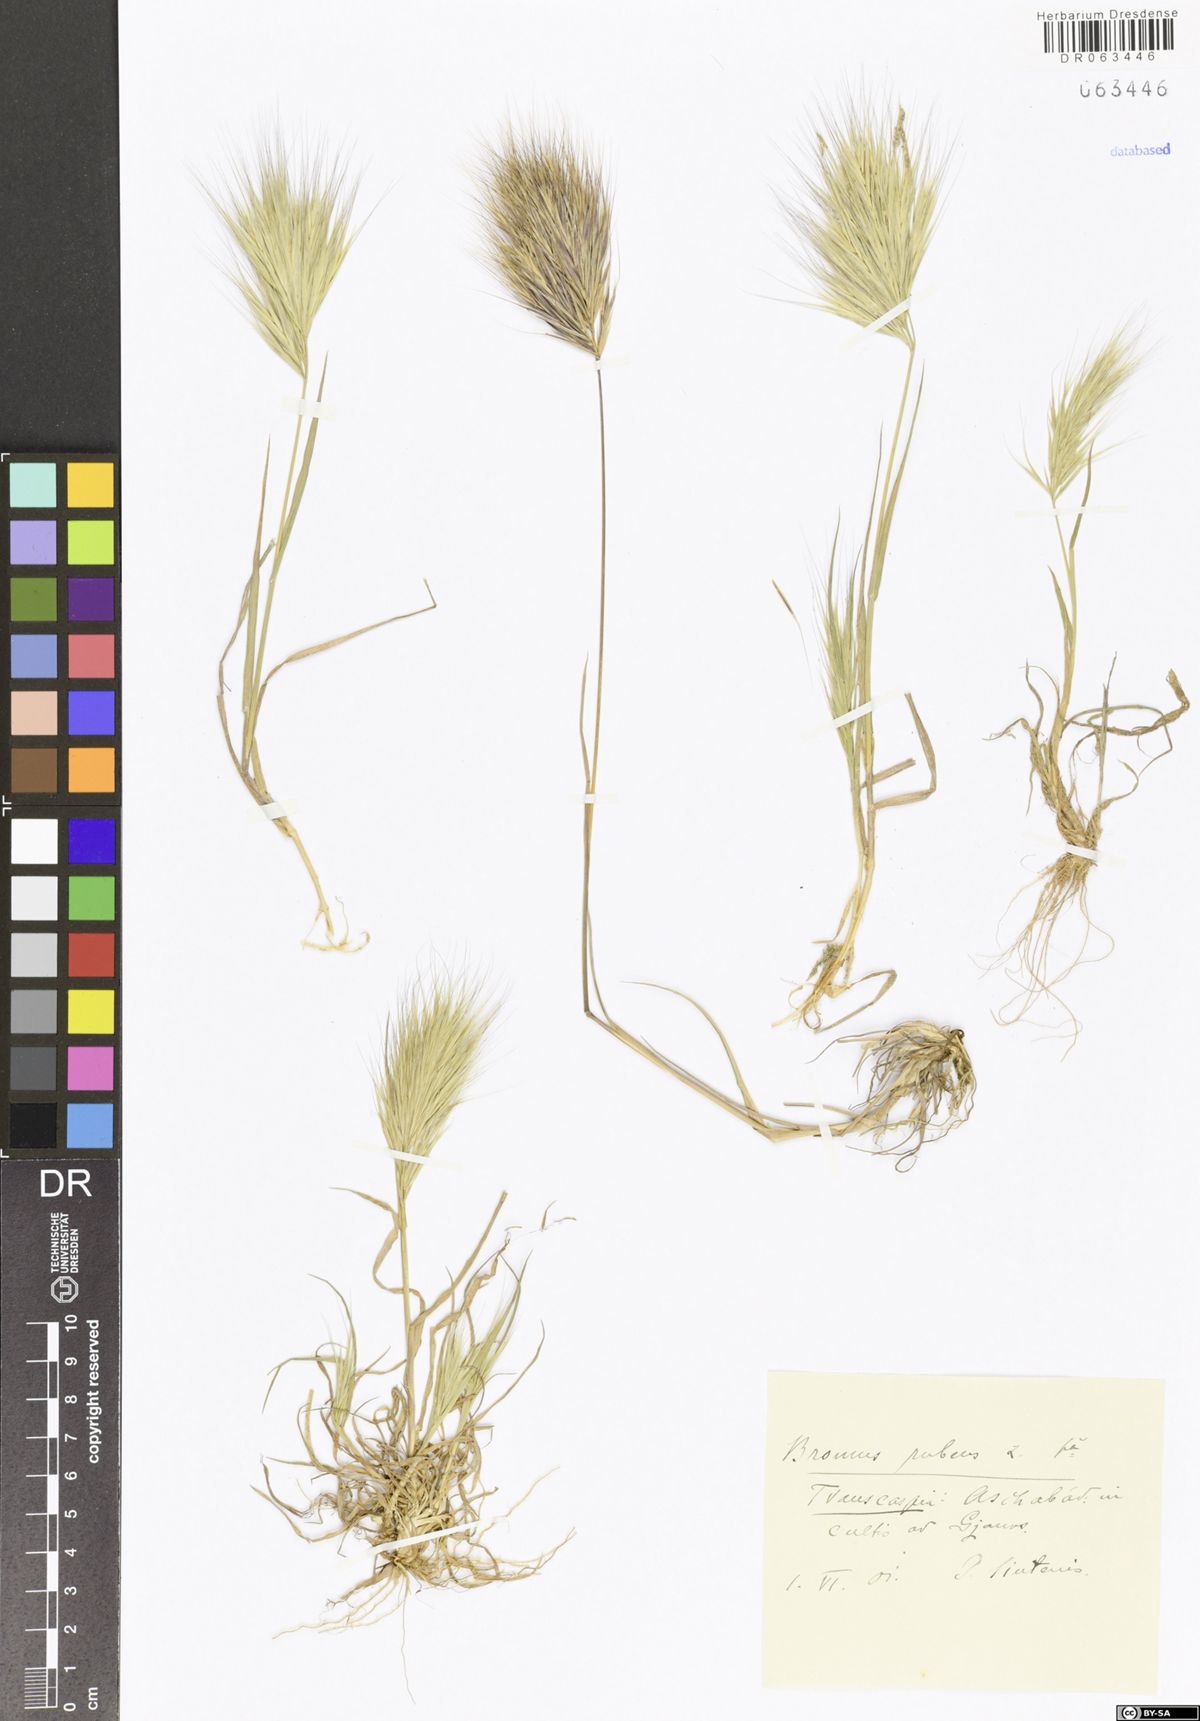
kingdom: Plantae
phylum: Tracheophyta
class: Liliopsida
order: Poales
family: Poaceae
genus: Bromus
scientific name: Bromus rubens
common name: Red brome
